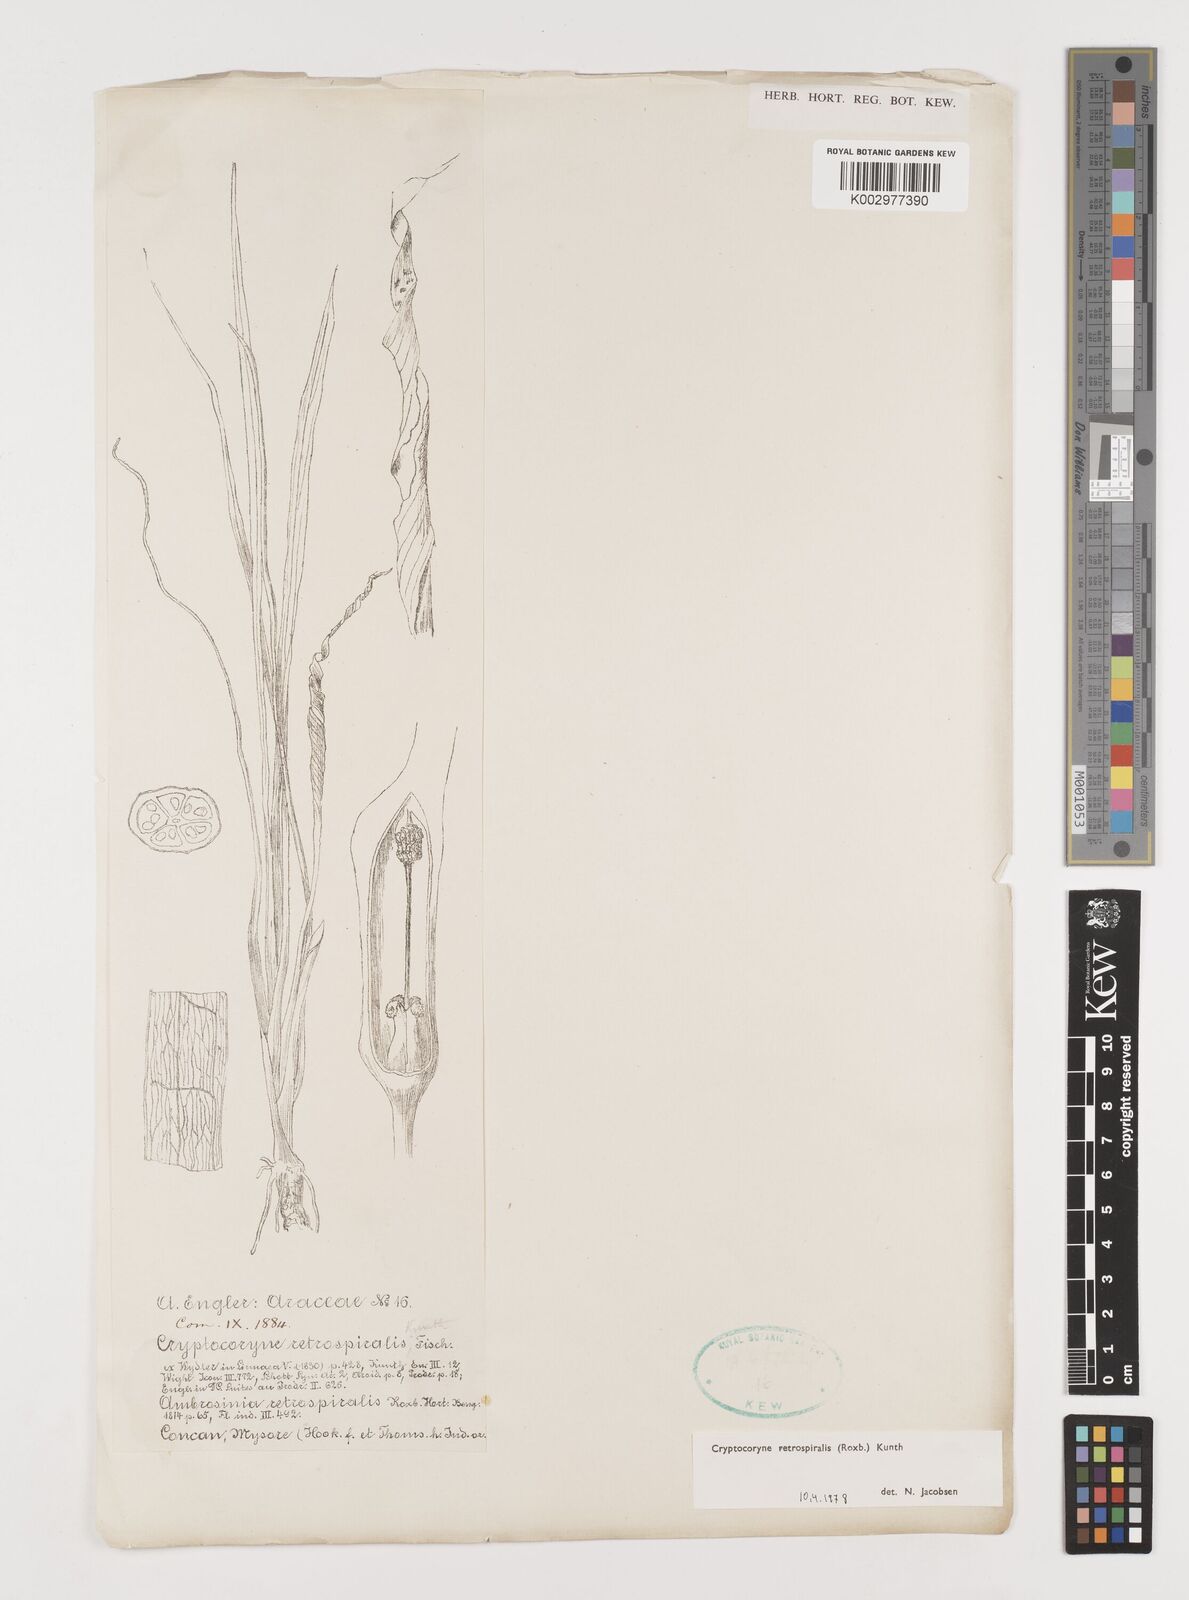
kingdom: Plantae
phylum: Tracheophyta
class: Liliopsida
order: Alismatales
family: Araceae
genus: Cryptocoryne
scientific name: Cryptocoryne retrospiralis
